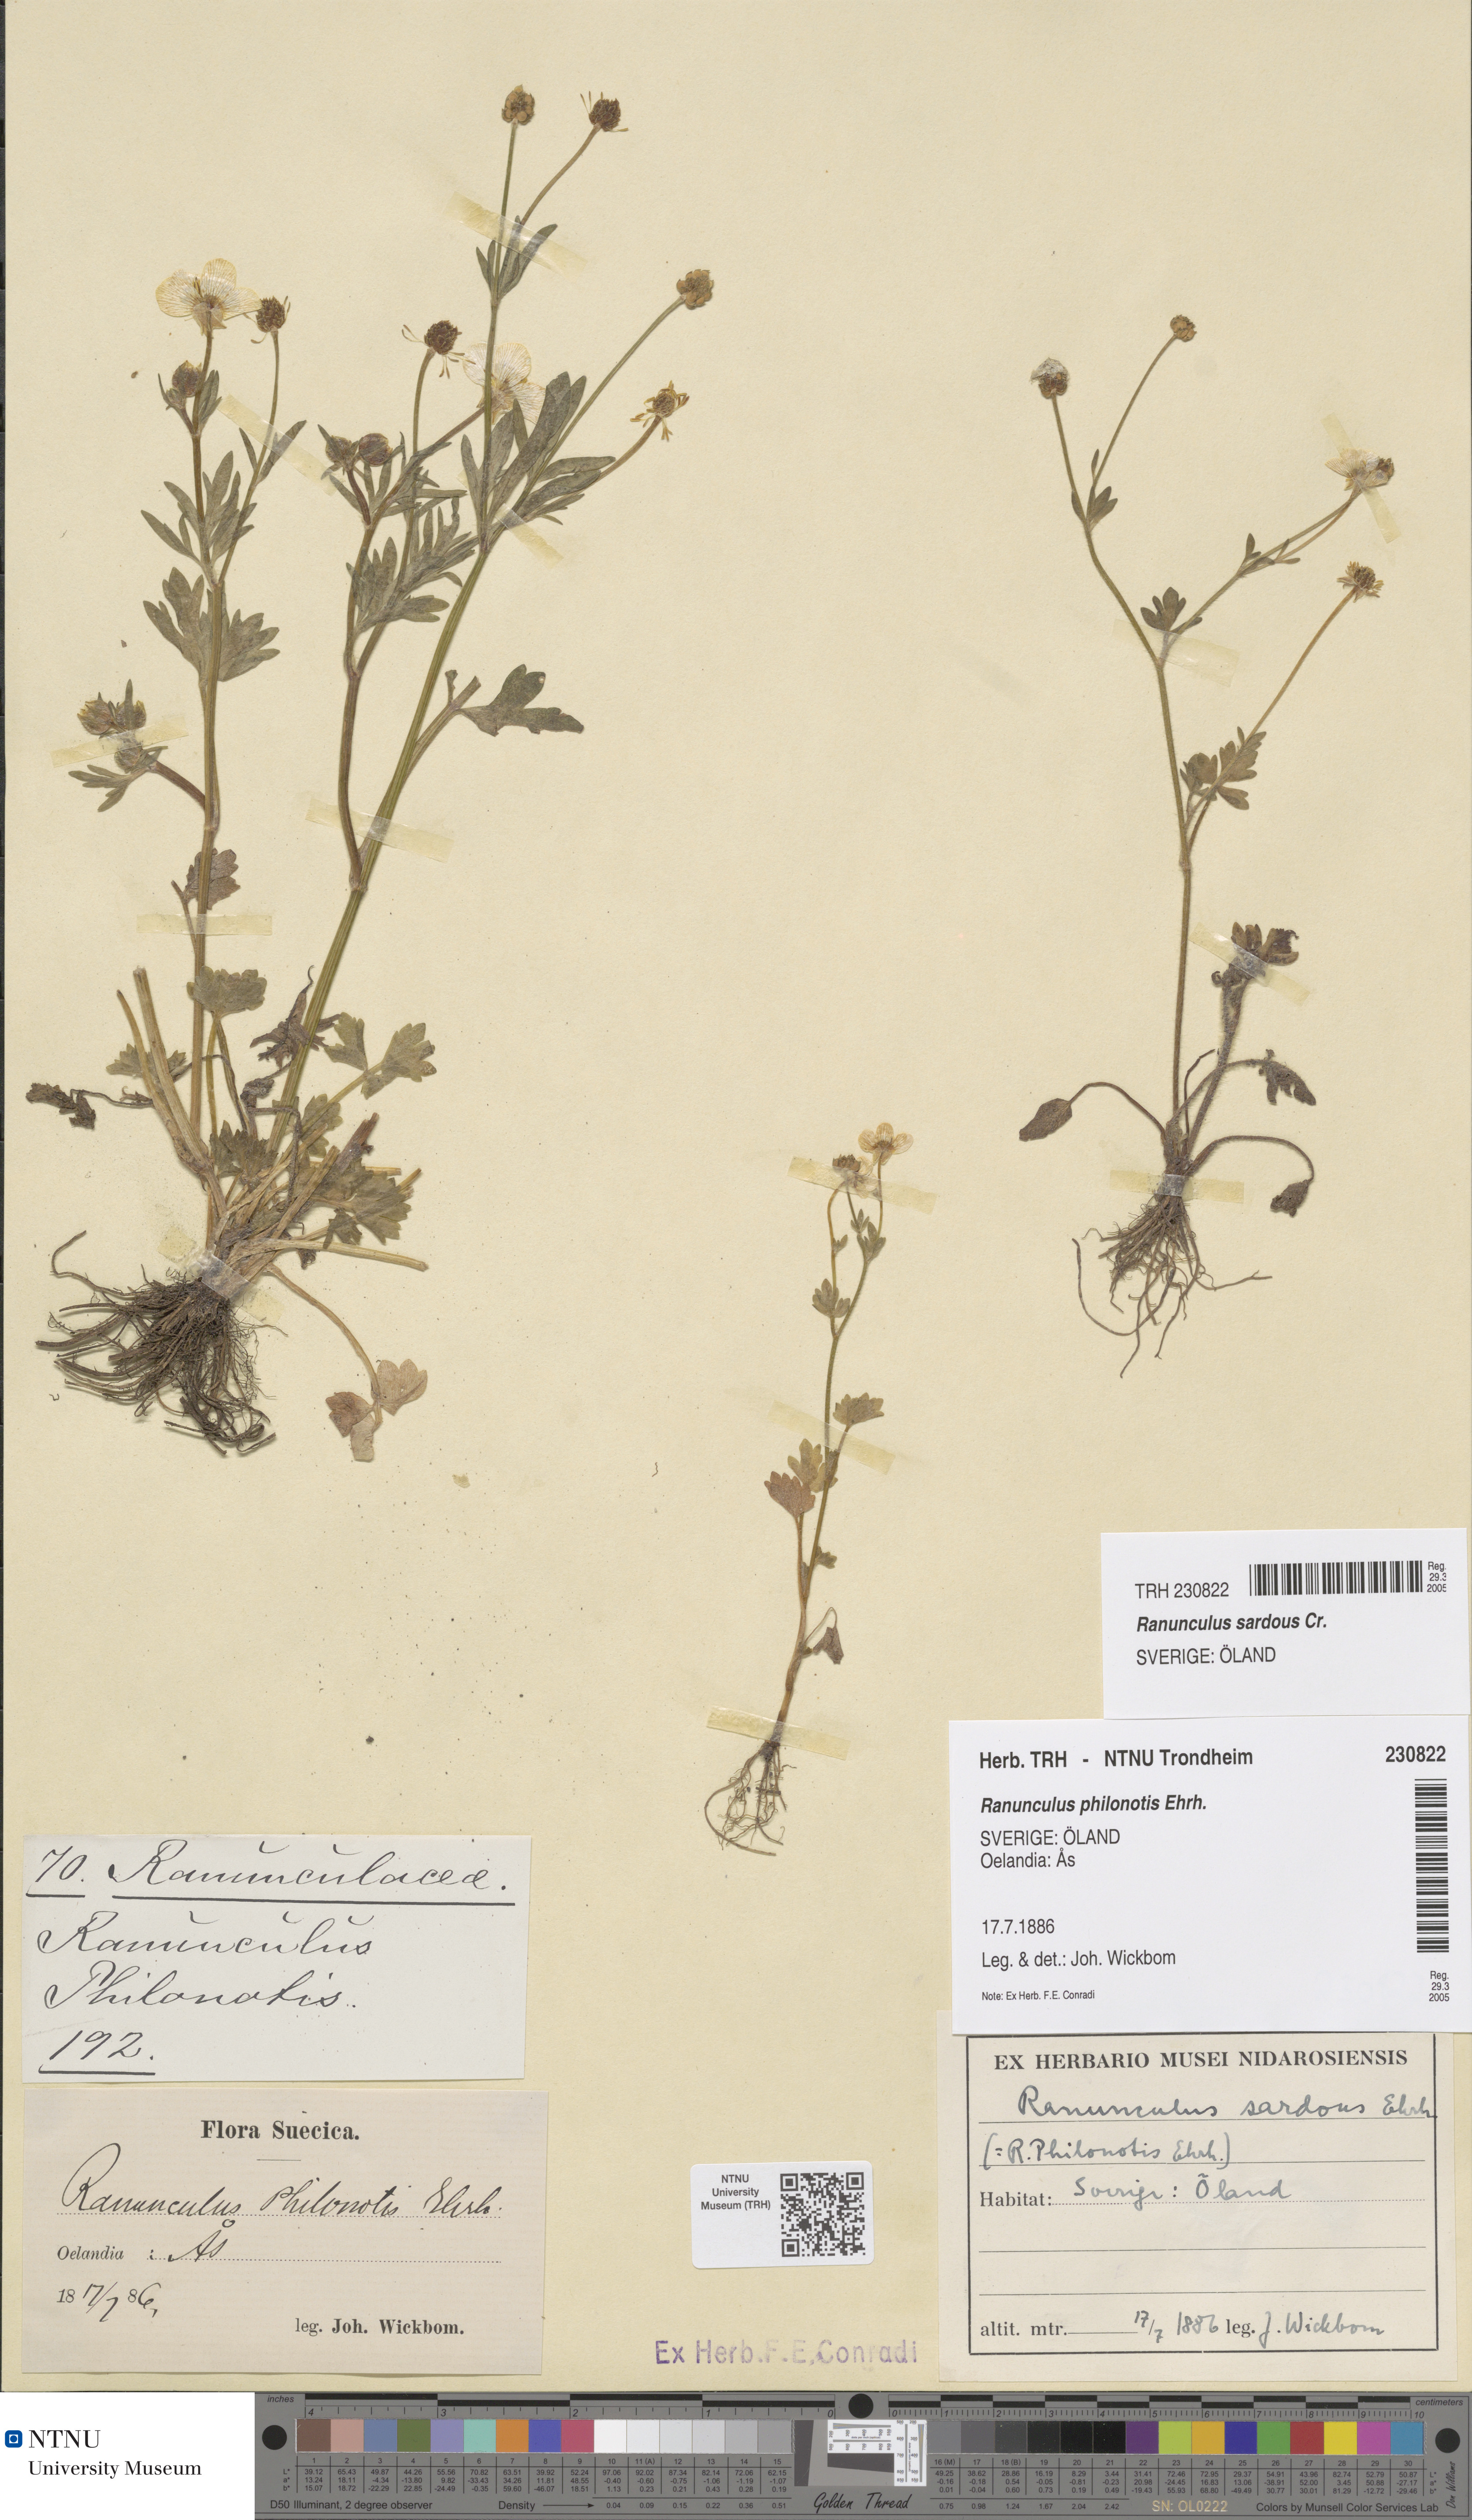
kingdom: Plantae
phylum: Tracheophyta
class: Magnoliopsida
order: Ranunculales
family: Ranunculaceae
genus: Ranunculus
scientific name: Ranunculus sardous
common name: Hairy buttercup
